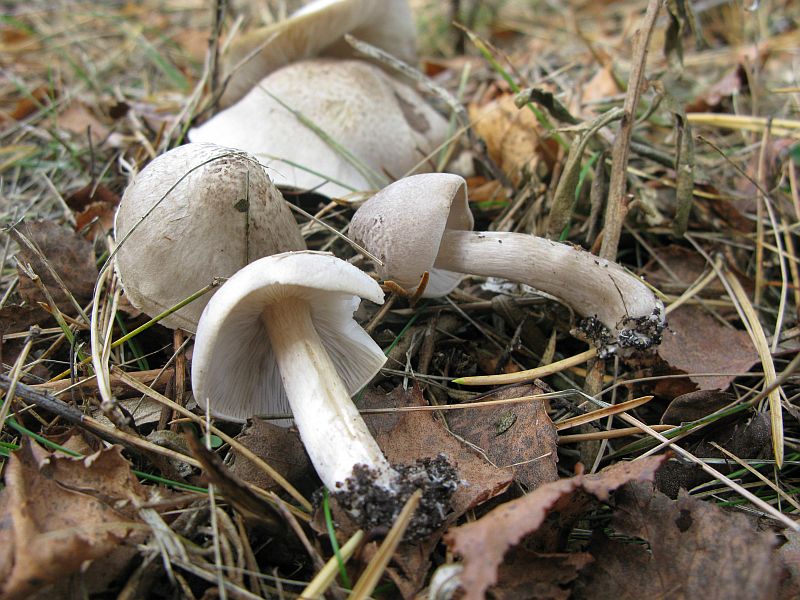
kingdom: Fungi
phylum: Basidiomycota
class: Agaricomycetes
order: Agaricales
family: Tricholomataceae
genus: Tricholoma
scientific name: Tricholoma argyraceum
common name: spids ridderhat
